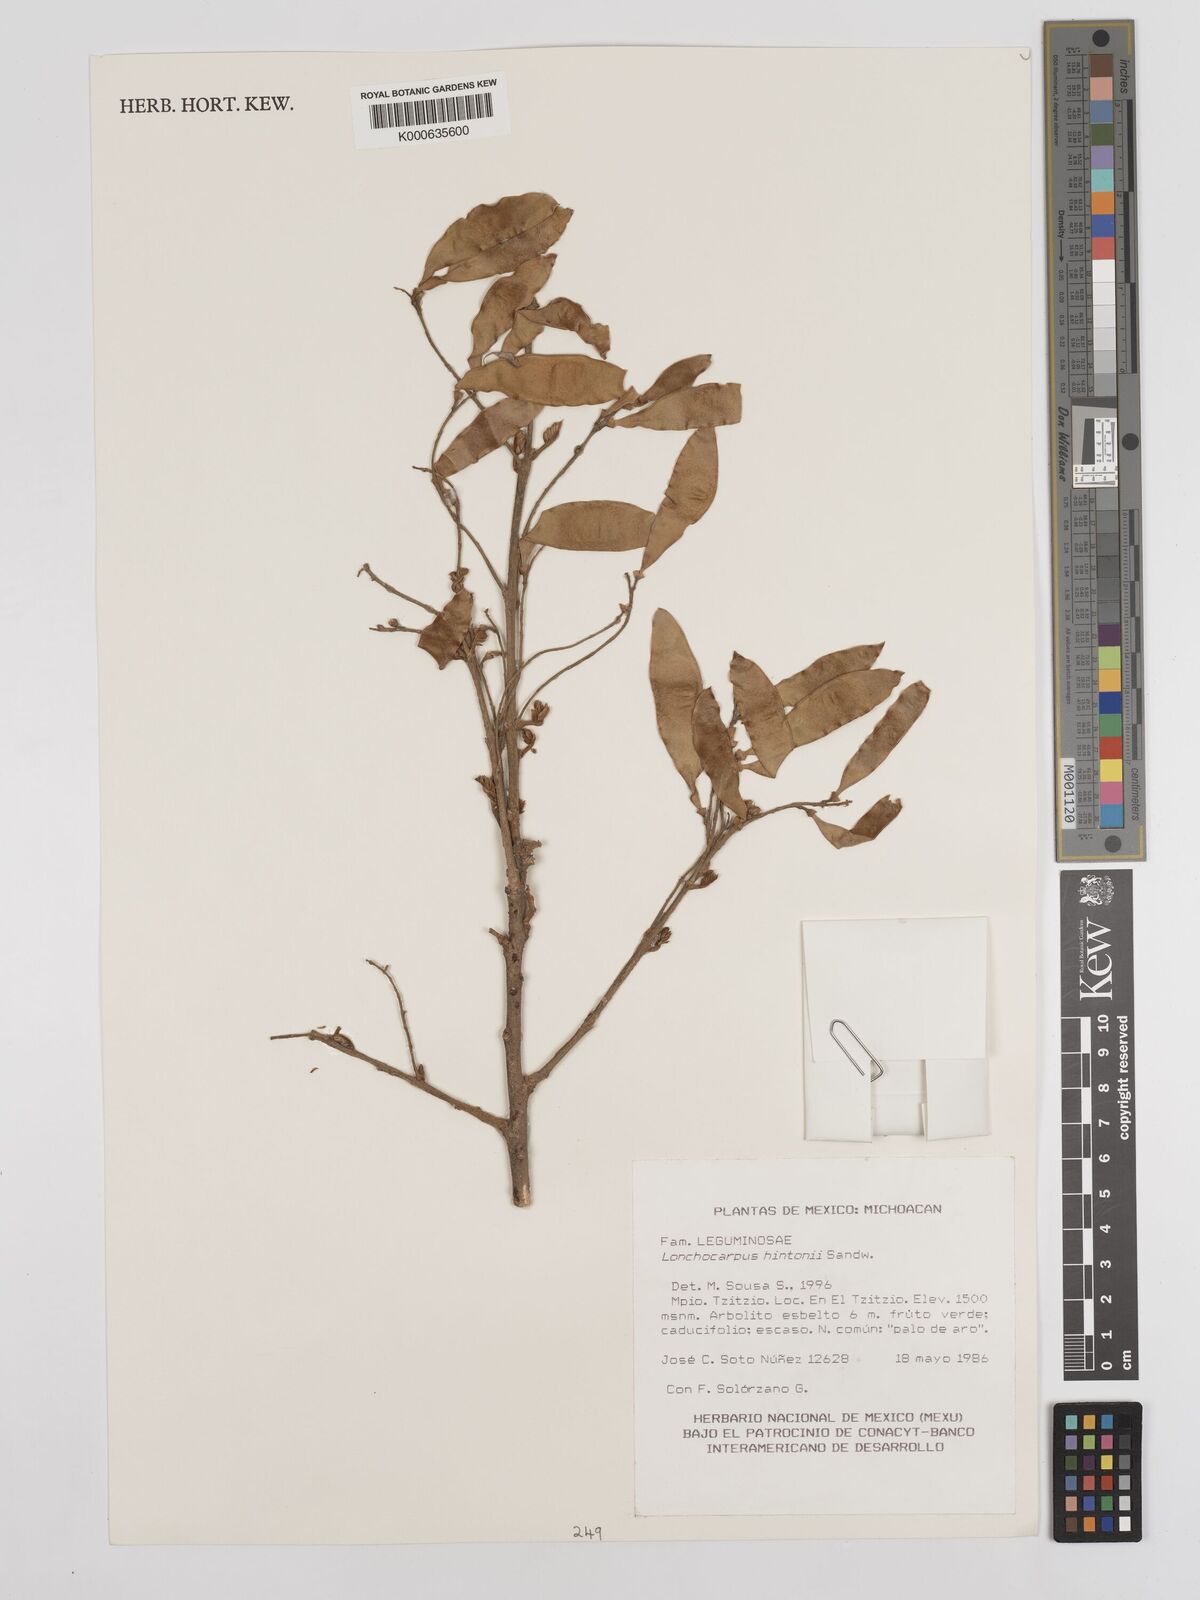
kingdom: Plantae
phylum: Tracheophyta
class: Magnoliopsida
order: Fabales
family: Fabaceae
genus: Lonchocarpus
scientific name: Lonchocarpus hintonii
